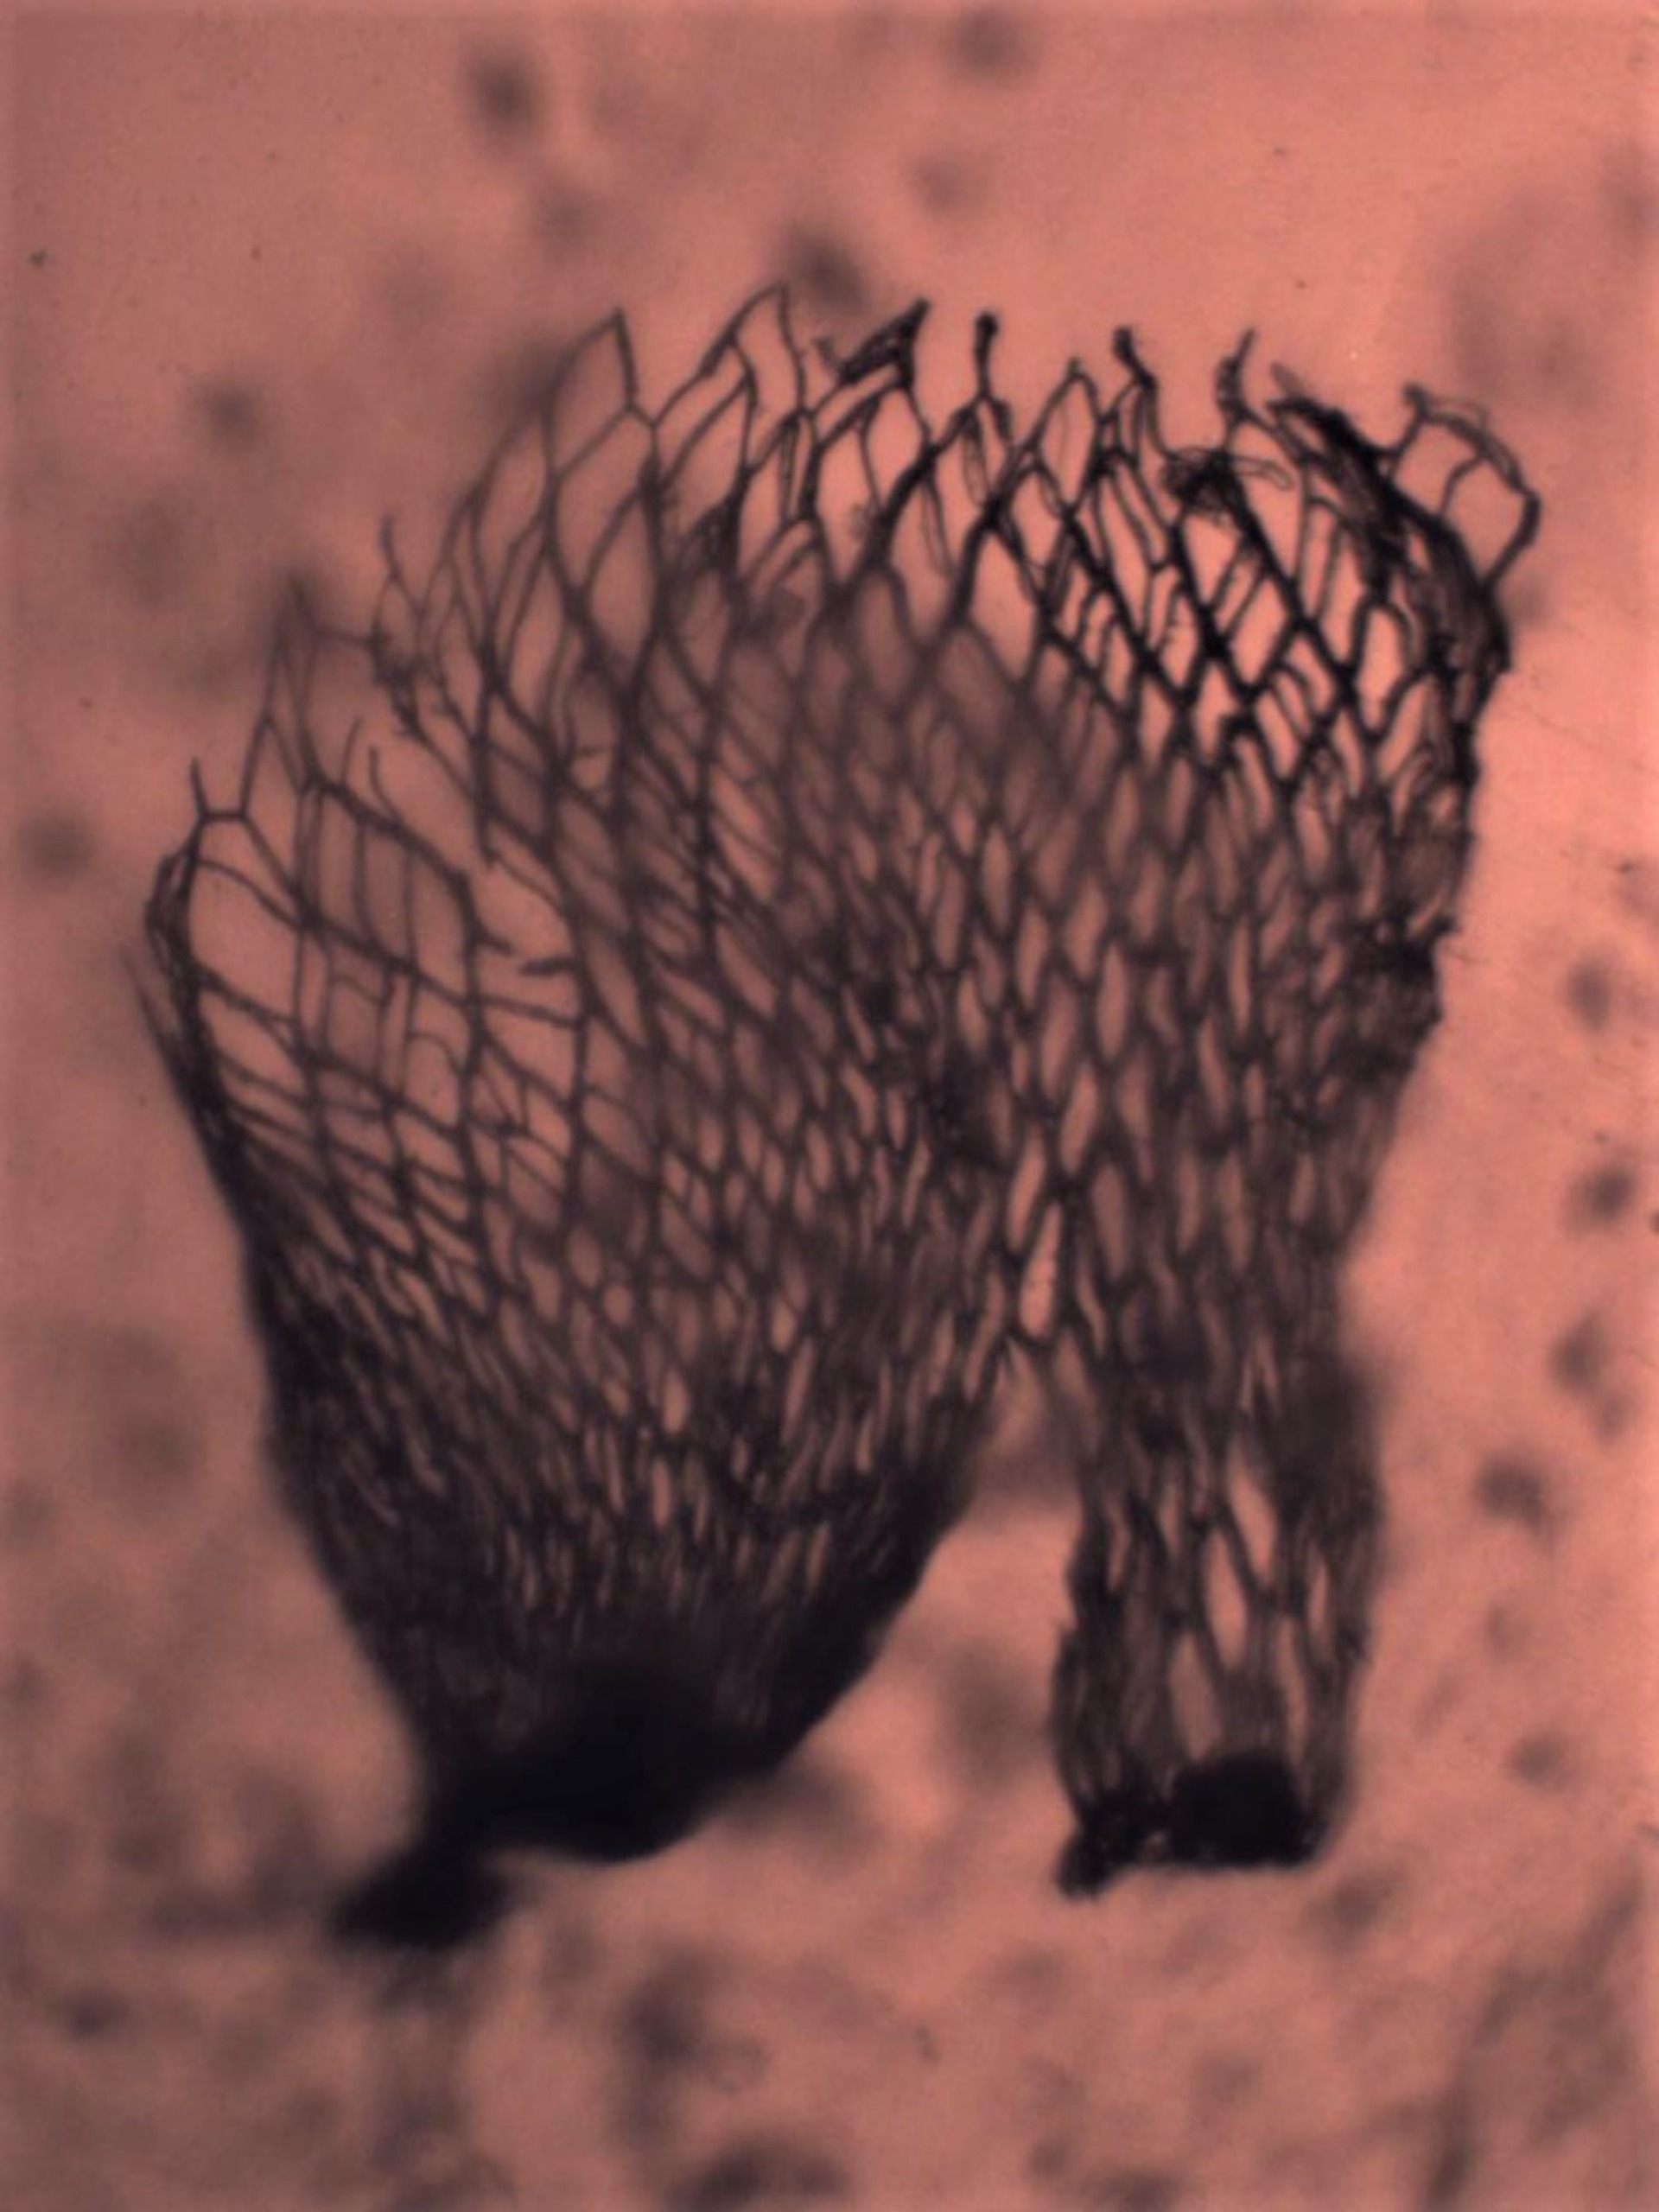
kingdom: Plantae
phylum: Bryophyta
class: Sphagnopsida
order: Sphagnales
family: Sphagnaceae
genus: Sphagnum
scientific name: Sphagnum fimbriatum
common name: Frynset tørvemos
